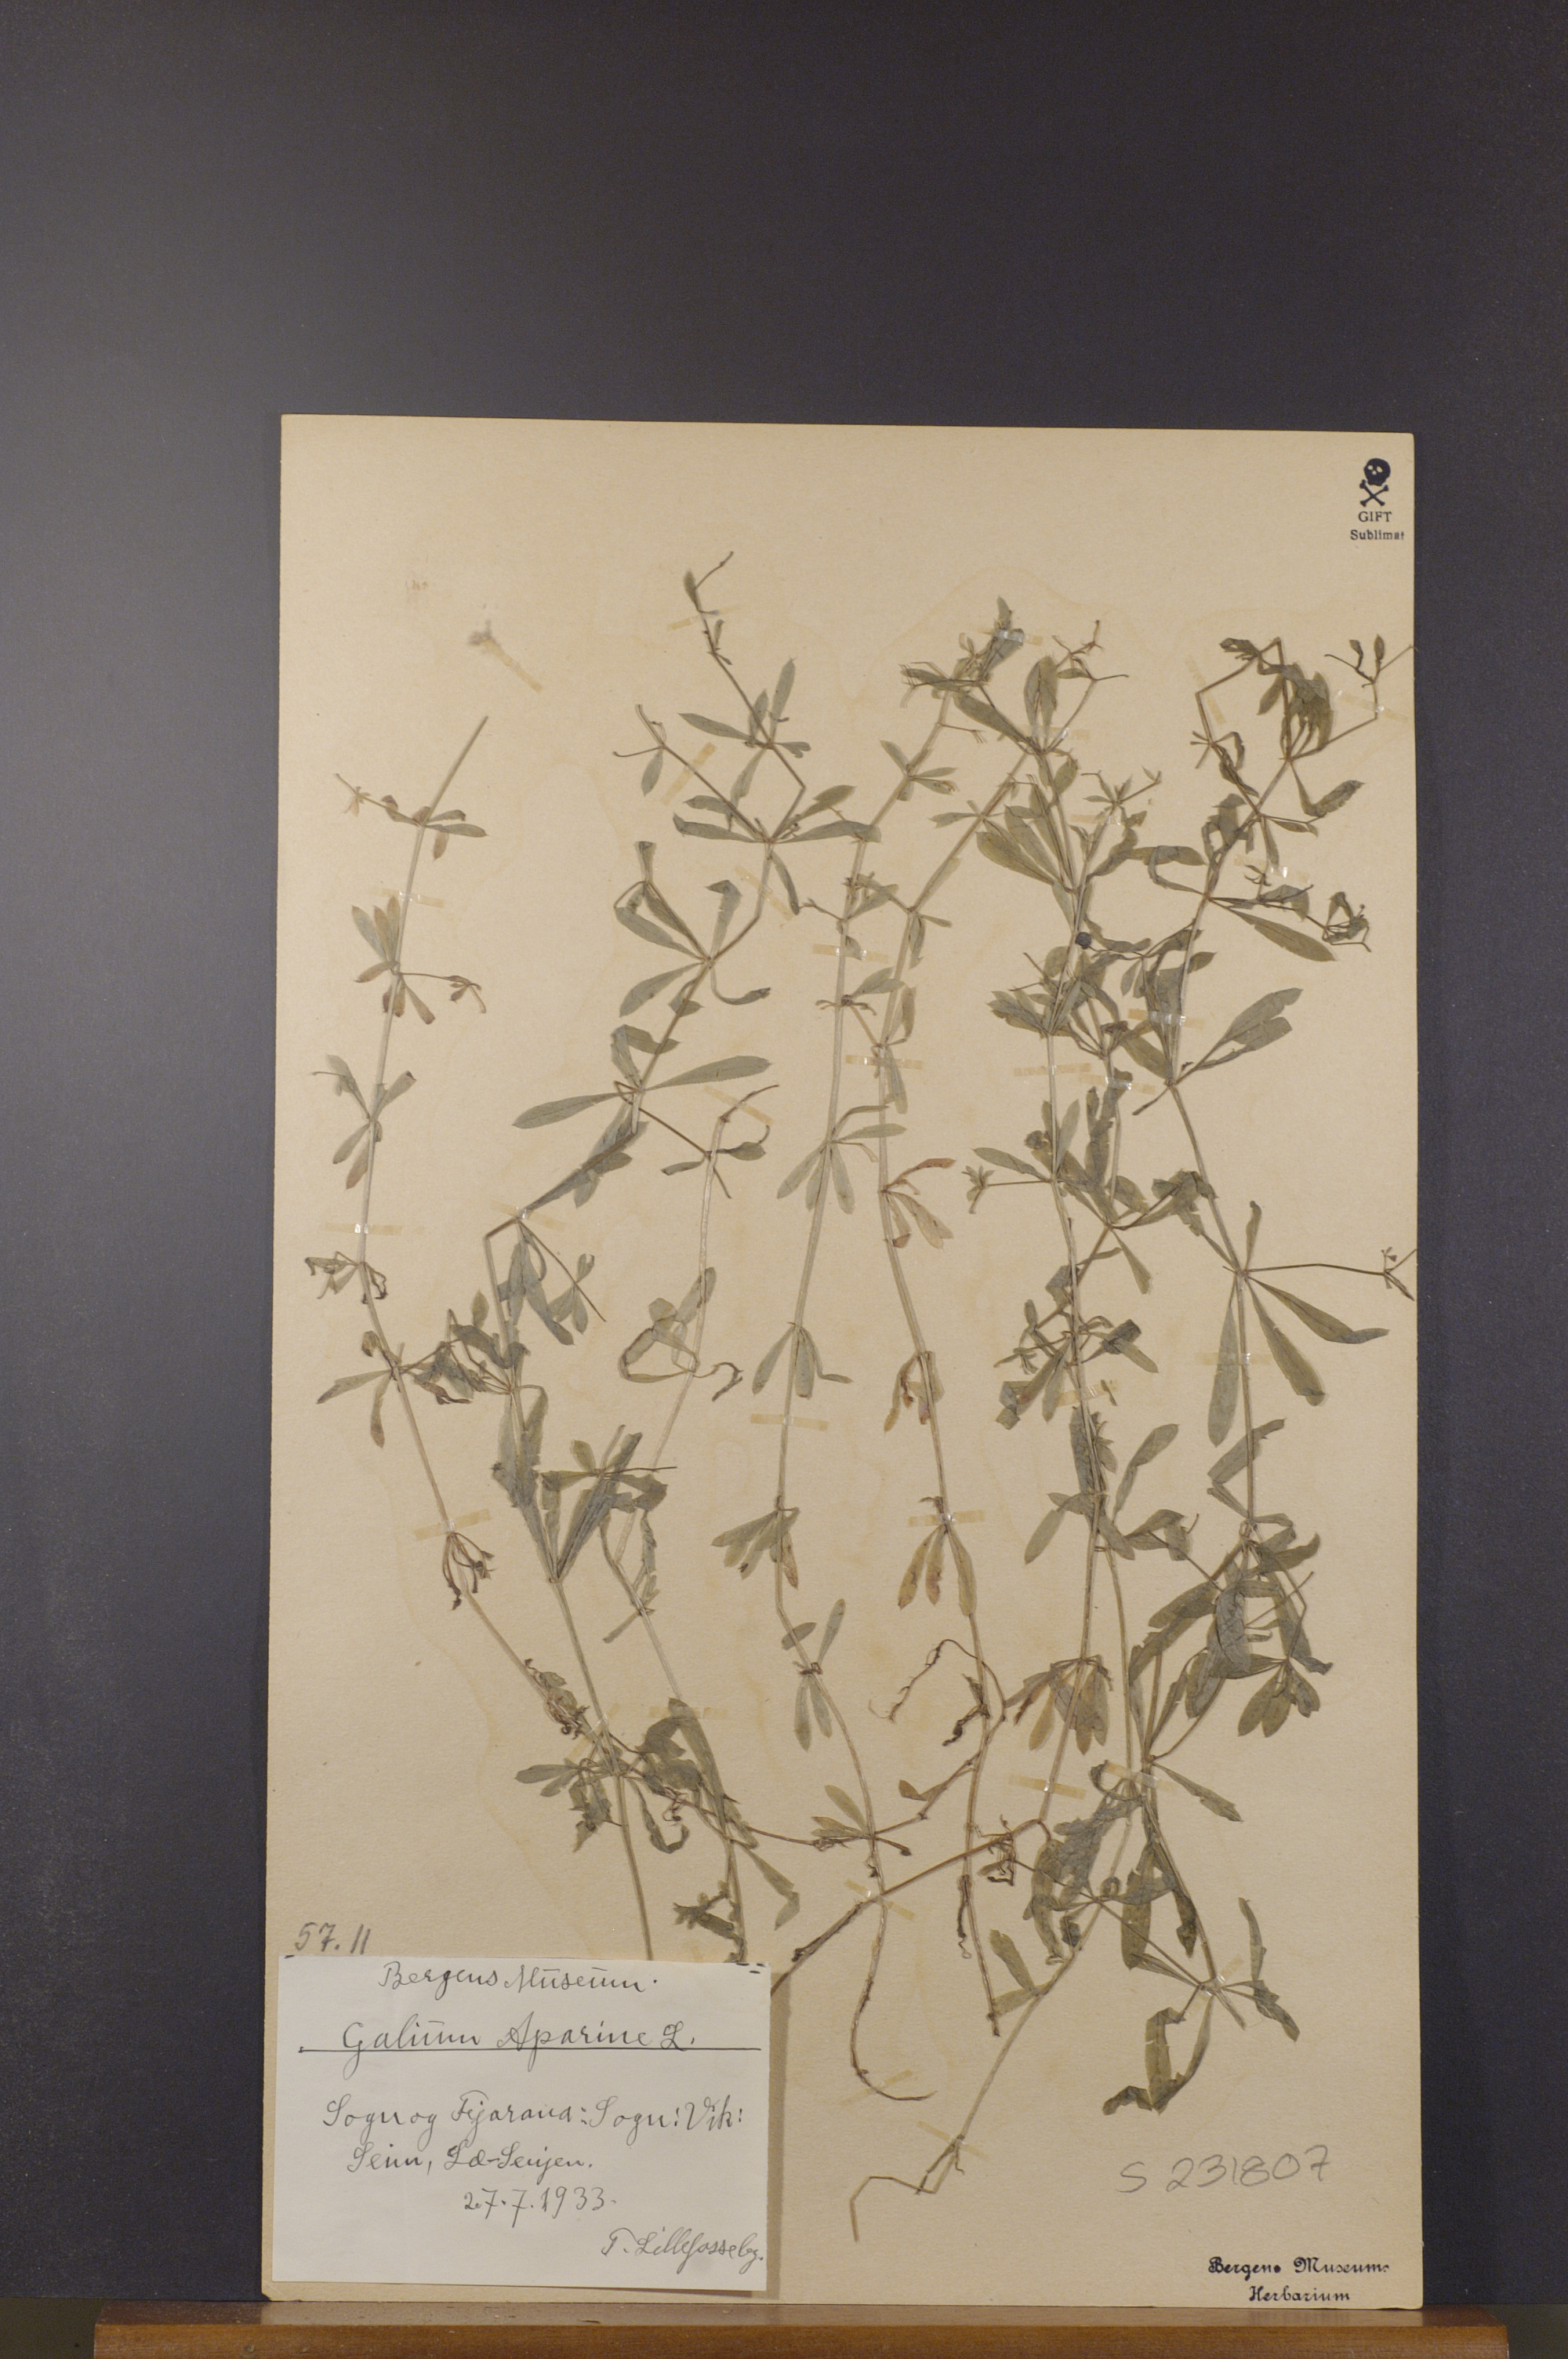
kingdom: Plantae
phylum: Tracheophyta
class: Magnoliopsida
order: Gentianales
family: Rubiaceae
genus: Galium
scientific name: Galium aparine
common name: Cleavers
